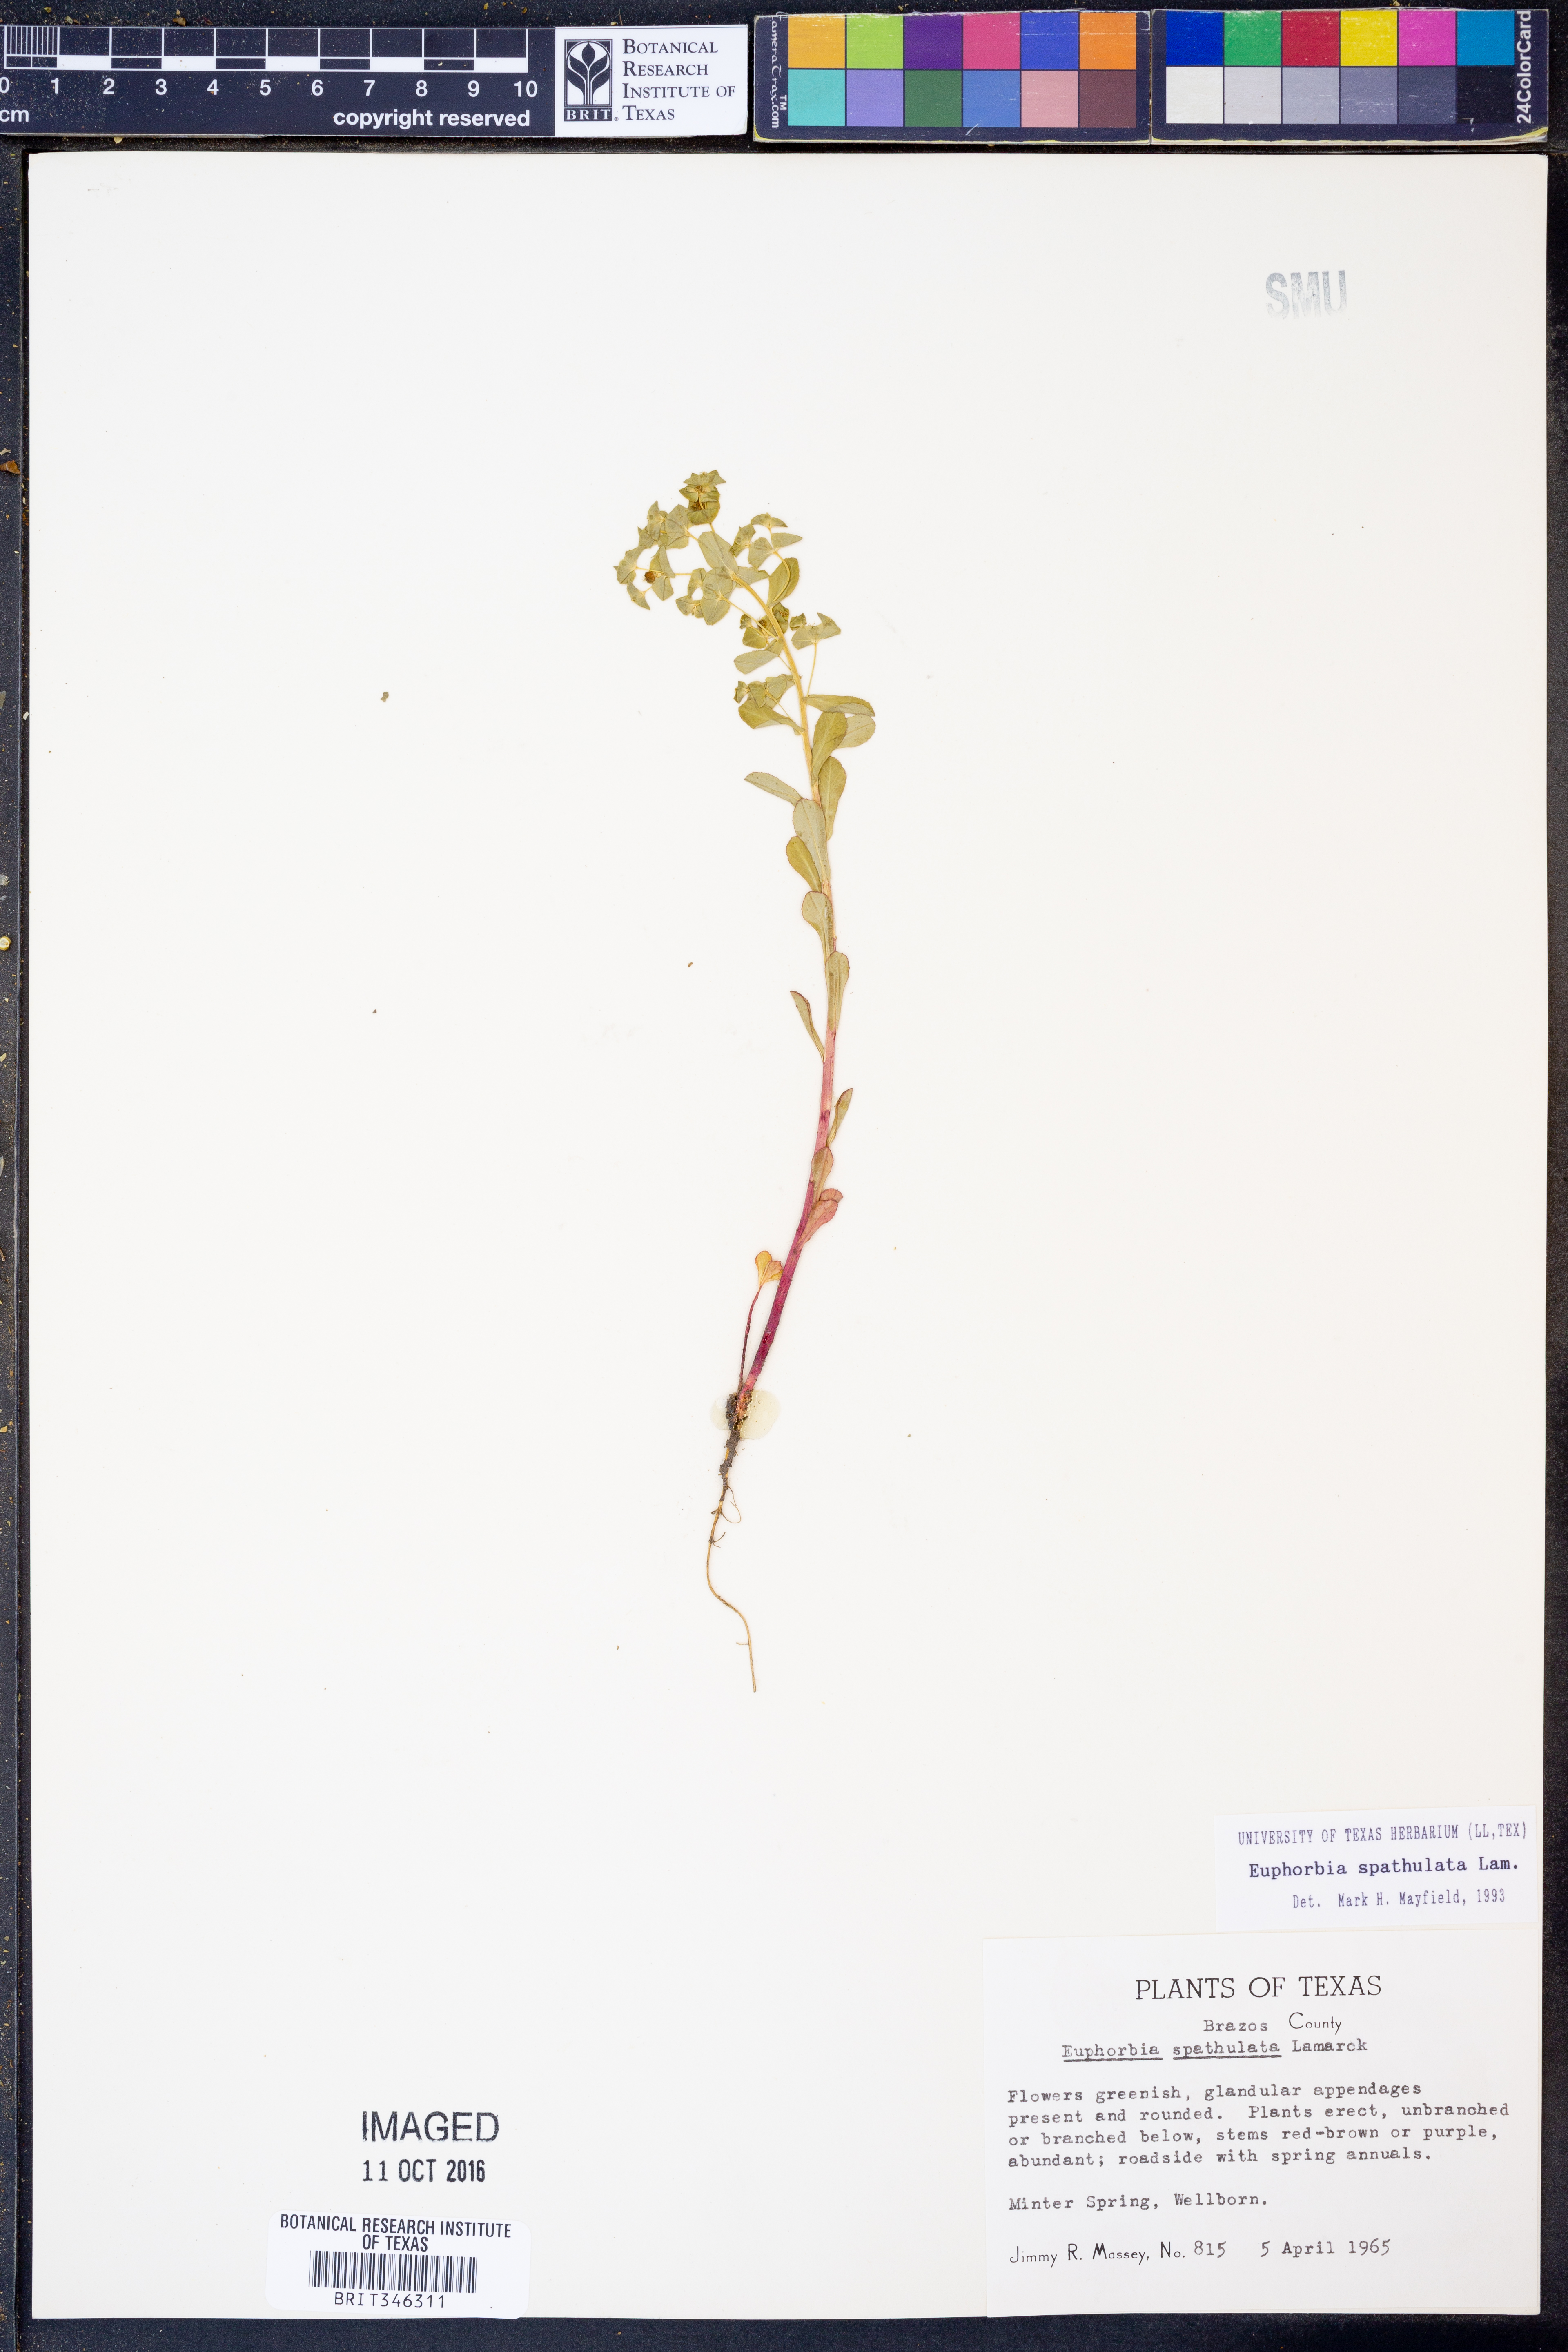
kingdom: Plantae
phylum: Tracheophyta
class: Magnoliopsida
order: Malpighiales
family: Euphorbiaceae
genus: Euphorbia
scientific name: Euphorbia spathulata
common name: Blunt spurge
